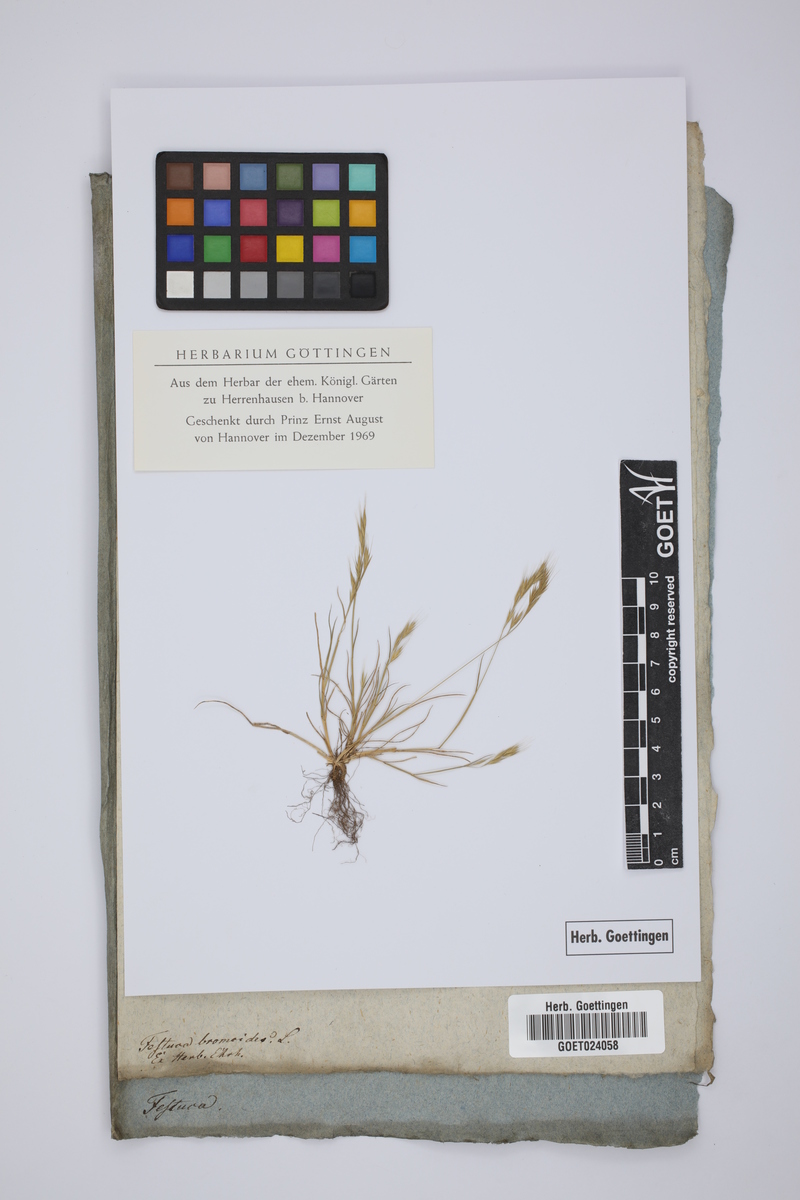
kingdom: Plantae
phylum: Tracheophyta
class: Liliopsida
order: Poales
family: Poaceae
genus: Festuca
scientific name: Festuca bromoides
